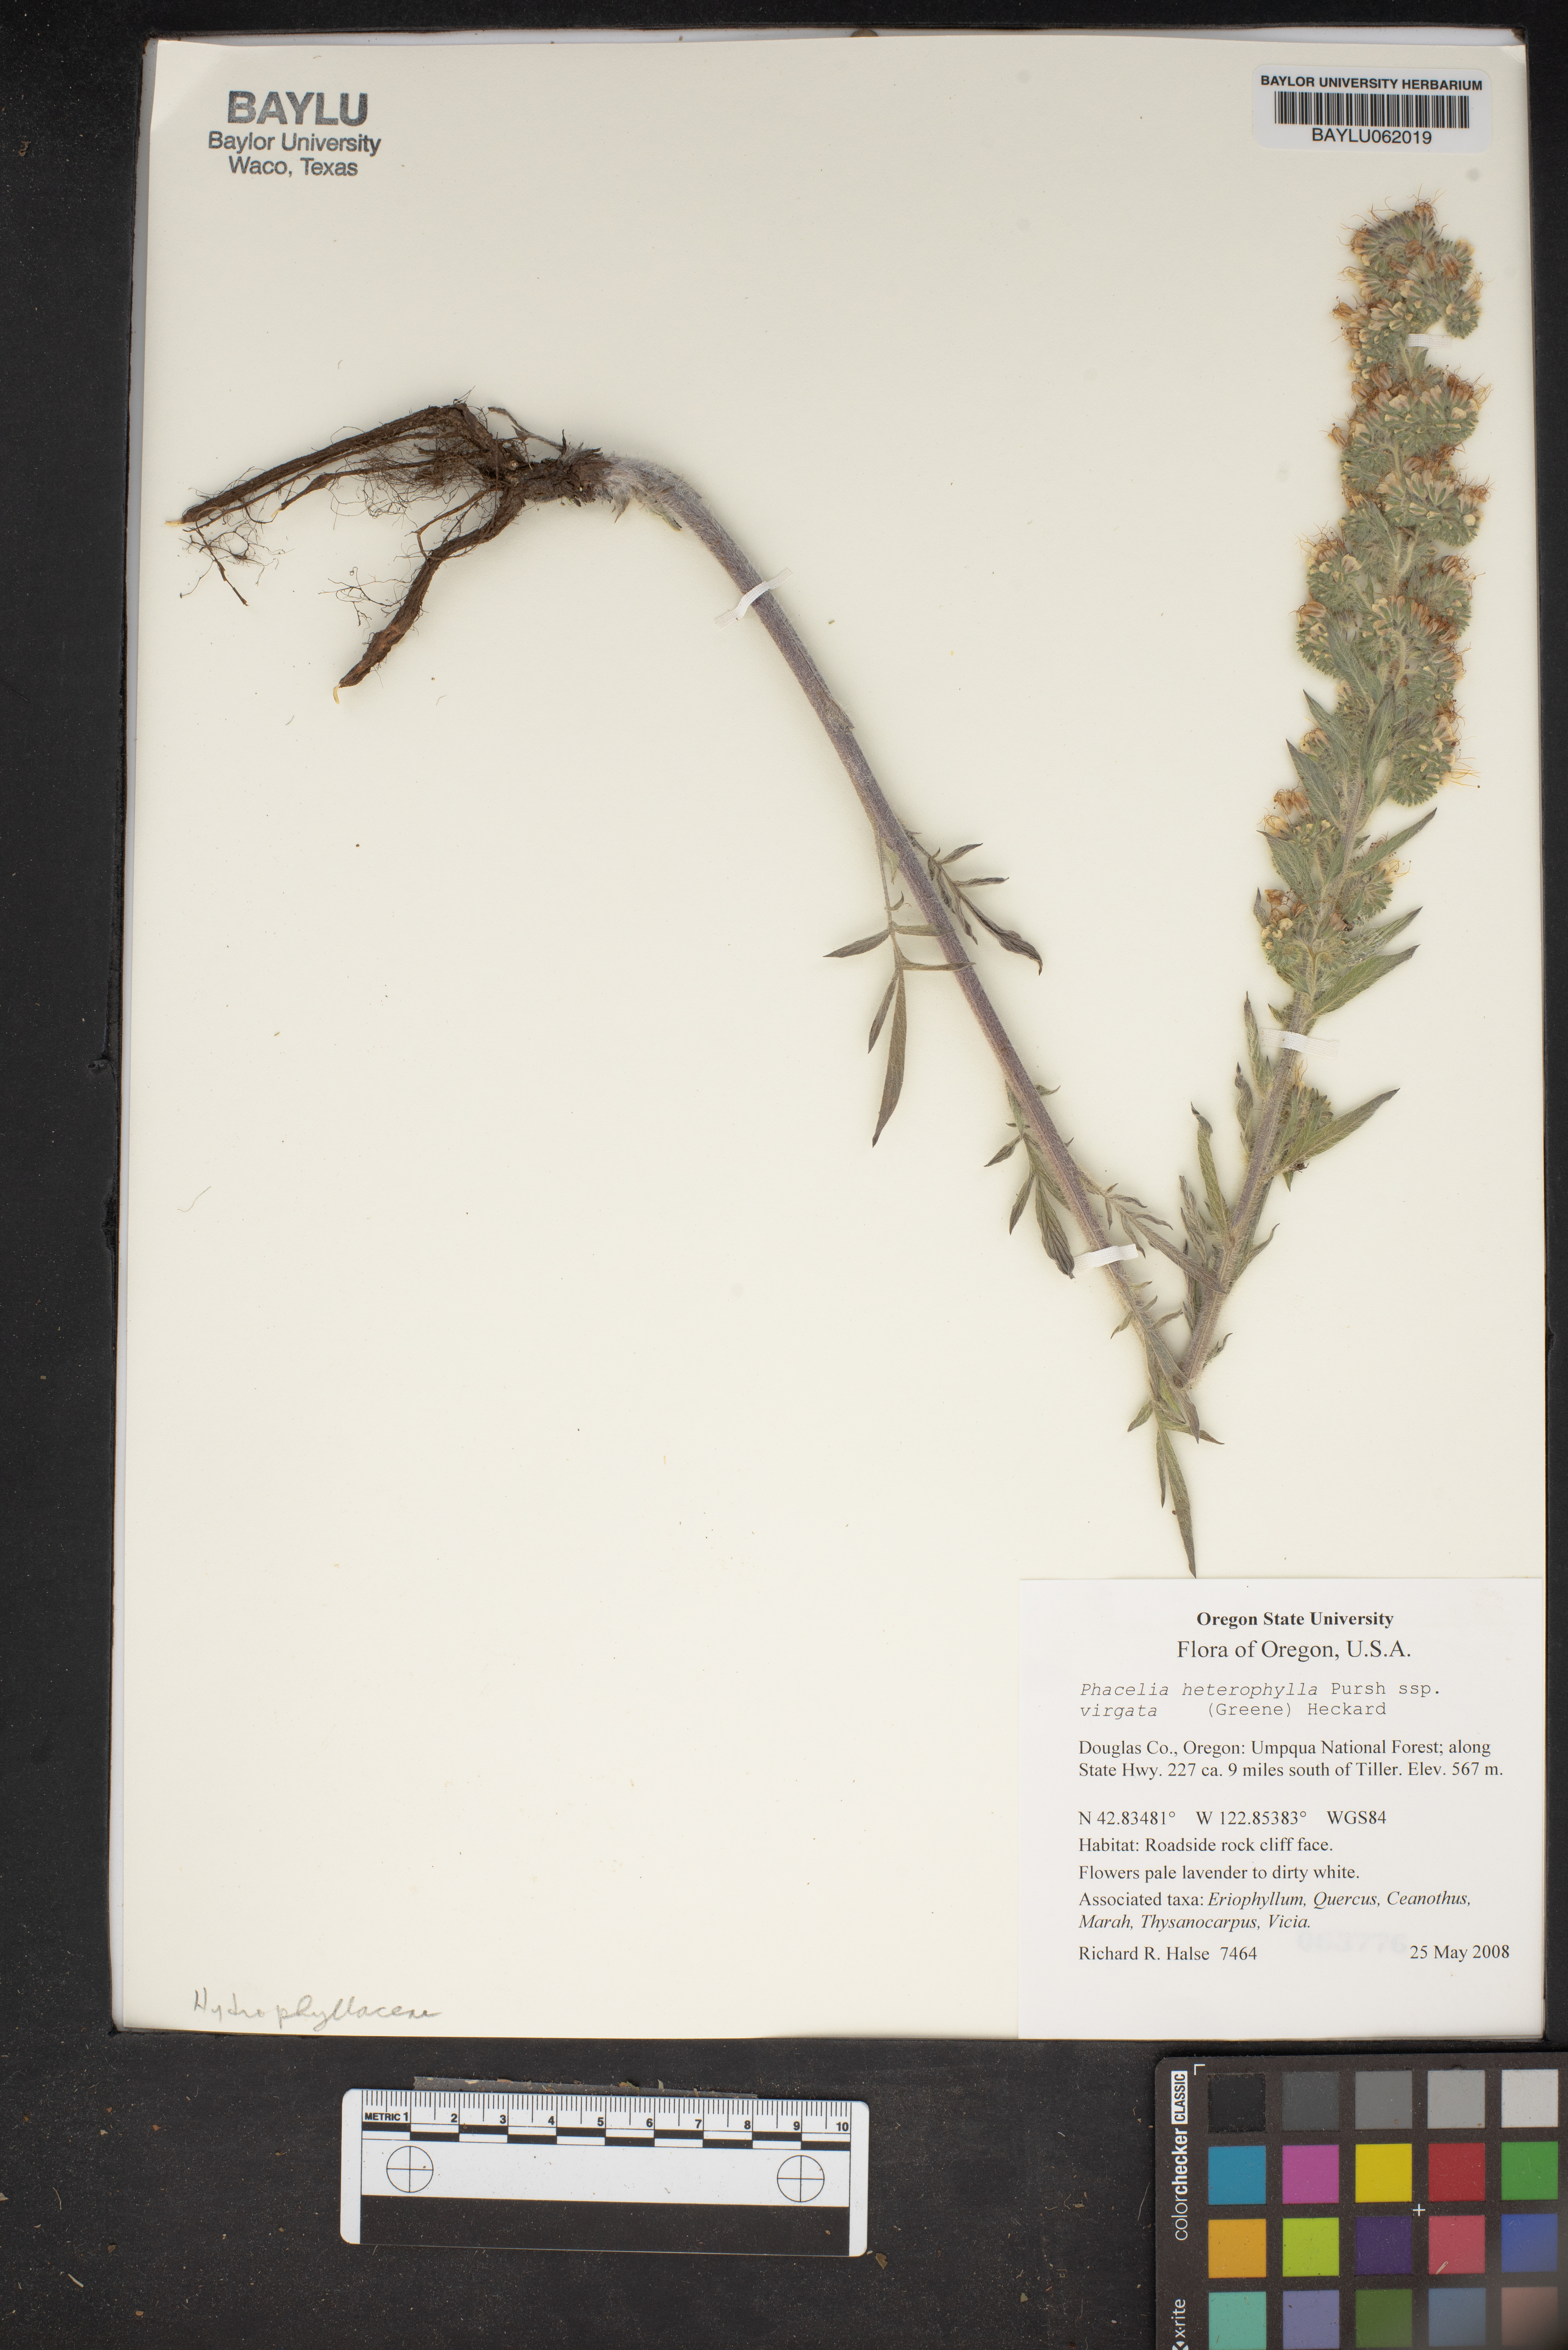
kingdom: Plantae
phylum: Tracheophyta
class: Magnoliopsida
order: Boraginales
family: Hydrophyllaceae
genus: Phacelia
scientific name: Phacelia heterophylla
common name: Variable-leaved phacelia
